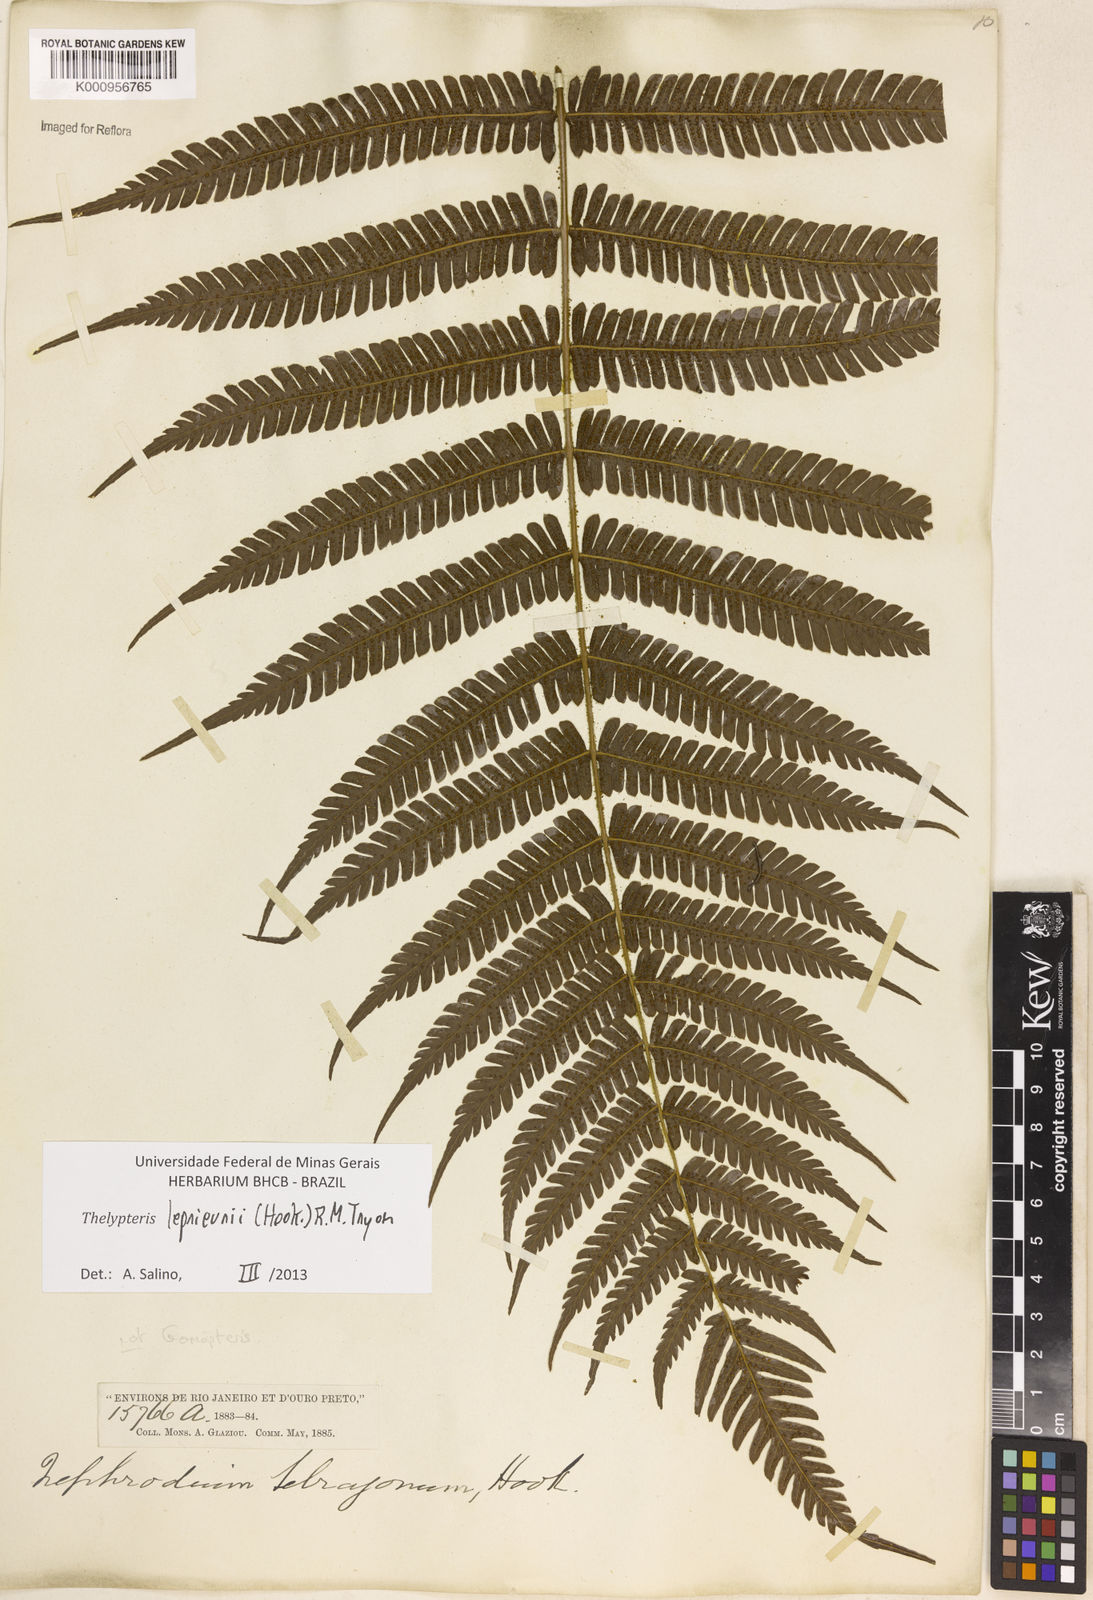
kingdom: Plantae
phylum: Tracheophyta
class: Polypodiopsida
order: Polypodiales
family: Thelypteridaceae
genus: Steiropteris
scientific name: Steiropteris leprieurii
